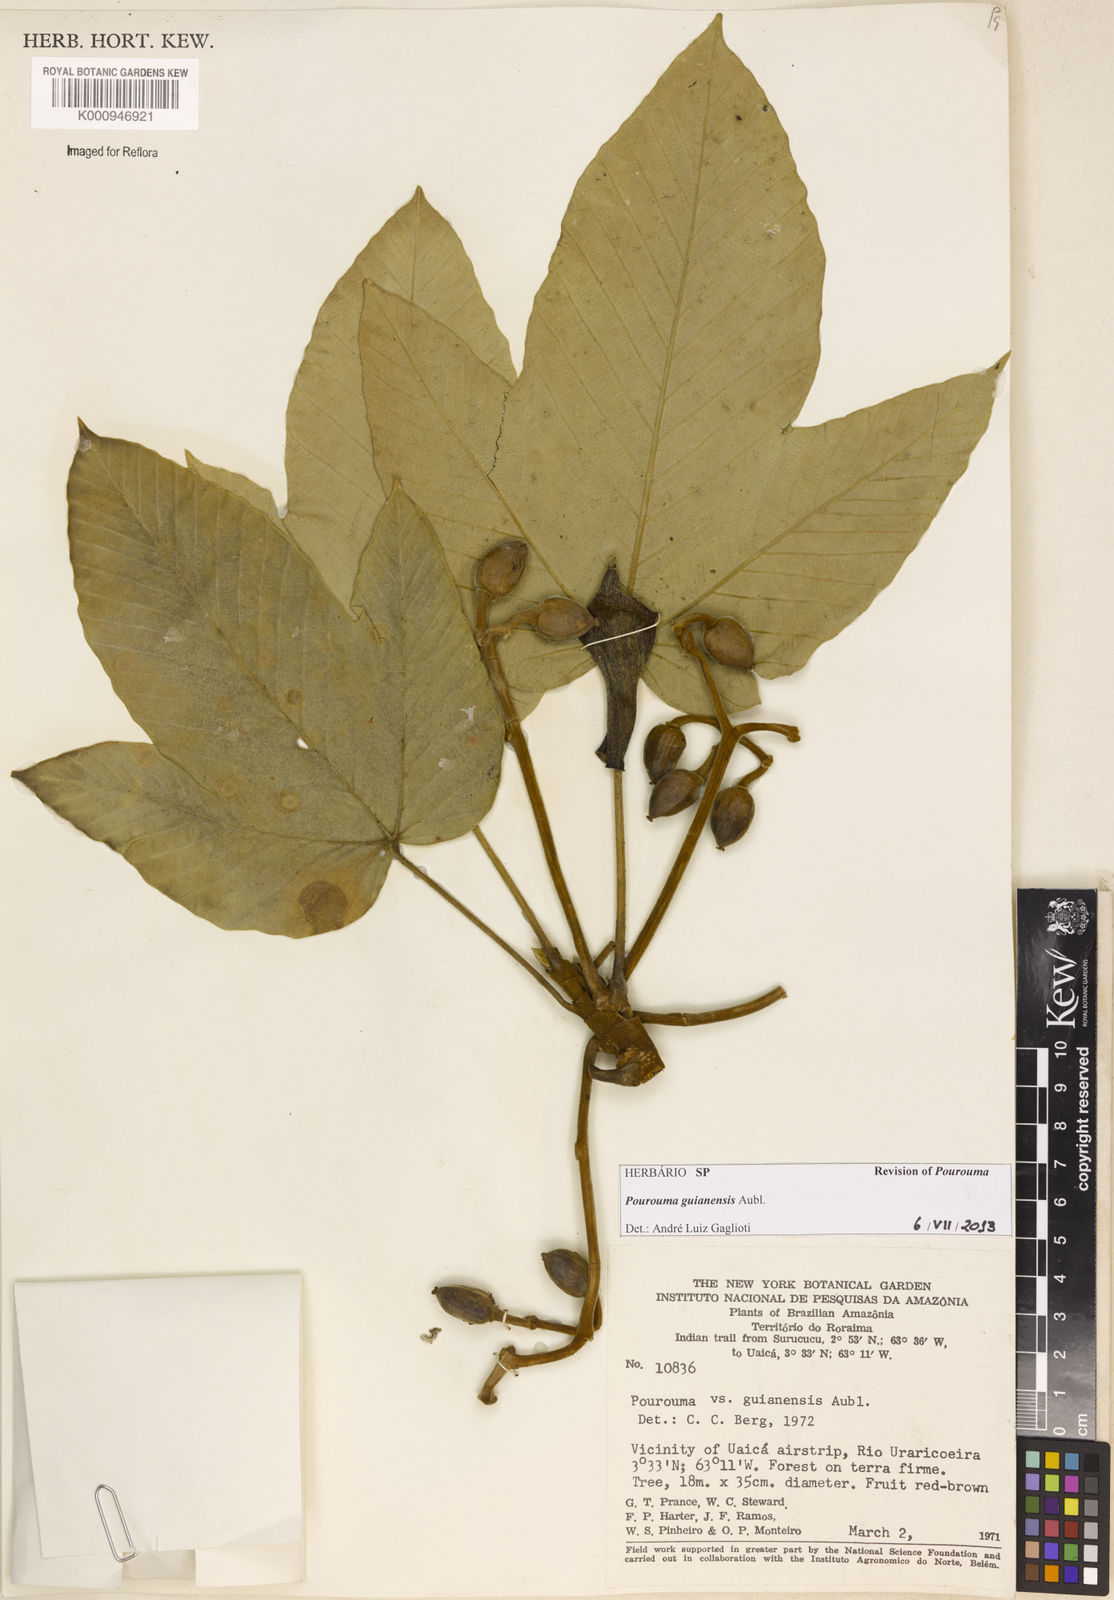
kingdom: Plantae
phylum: Tracheophyta
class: Magnoliopsida
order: Rosales
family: Urticaceae
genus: Pourouma
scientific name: Pourouma guianensis
